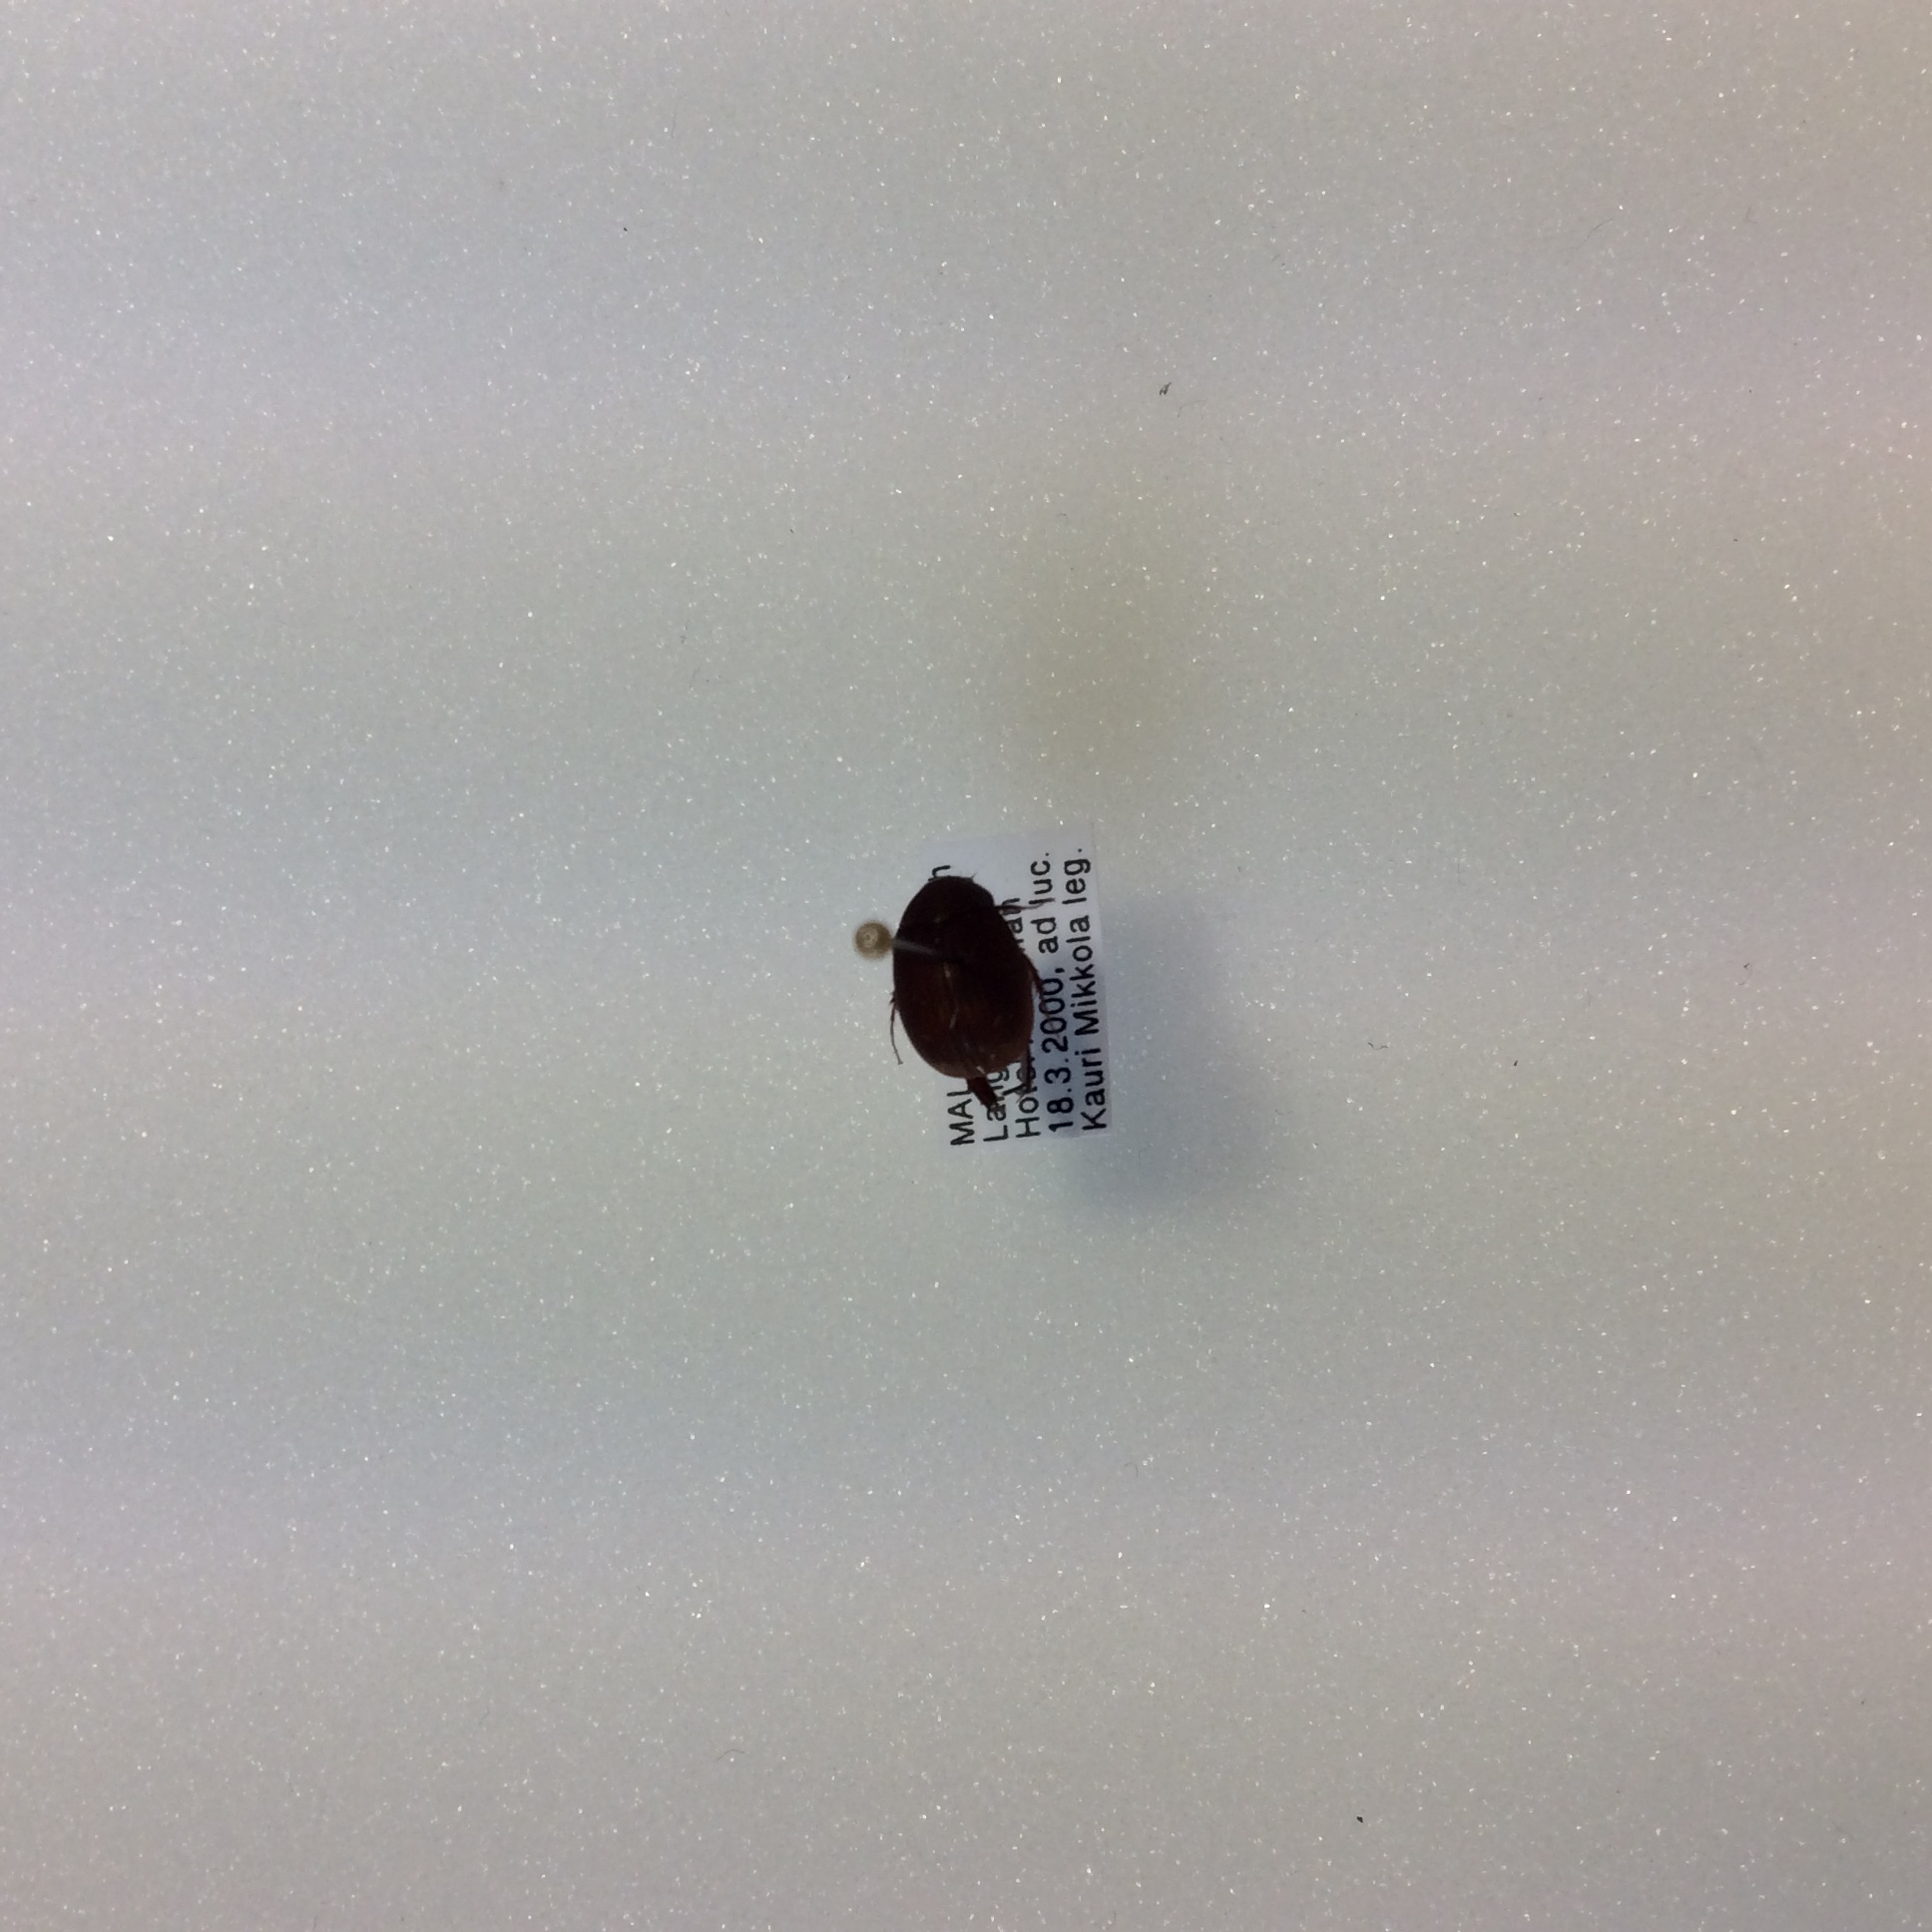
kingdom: Animalia
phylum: Arthropoda
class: Insecta
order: Coleoptera
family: Lucanidae
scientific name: Lucanidae
